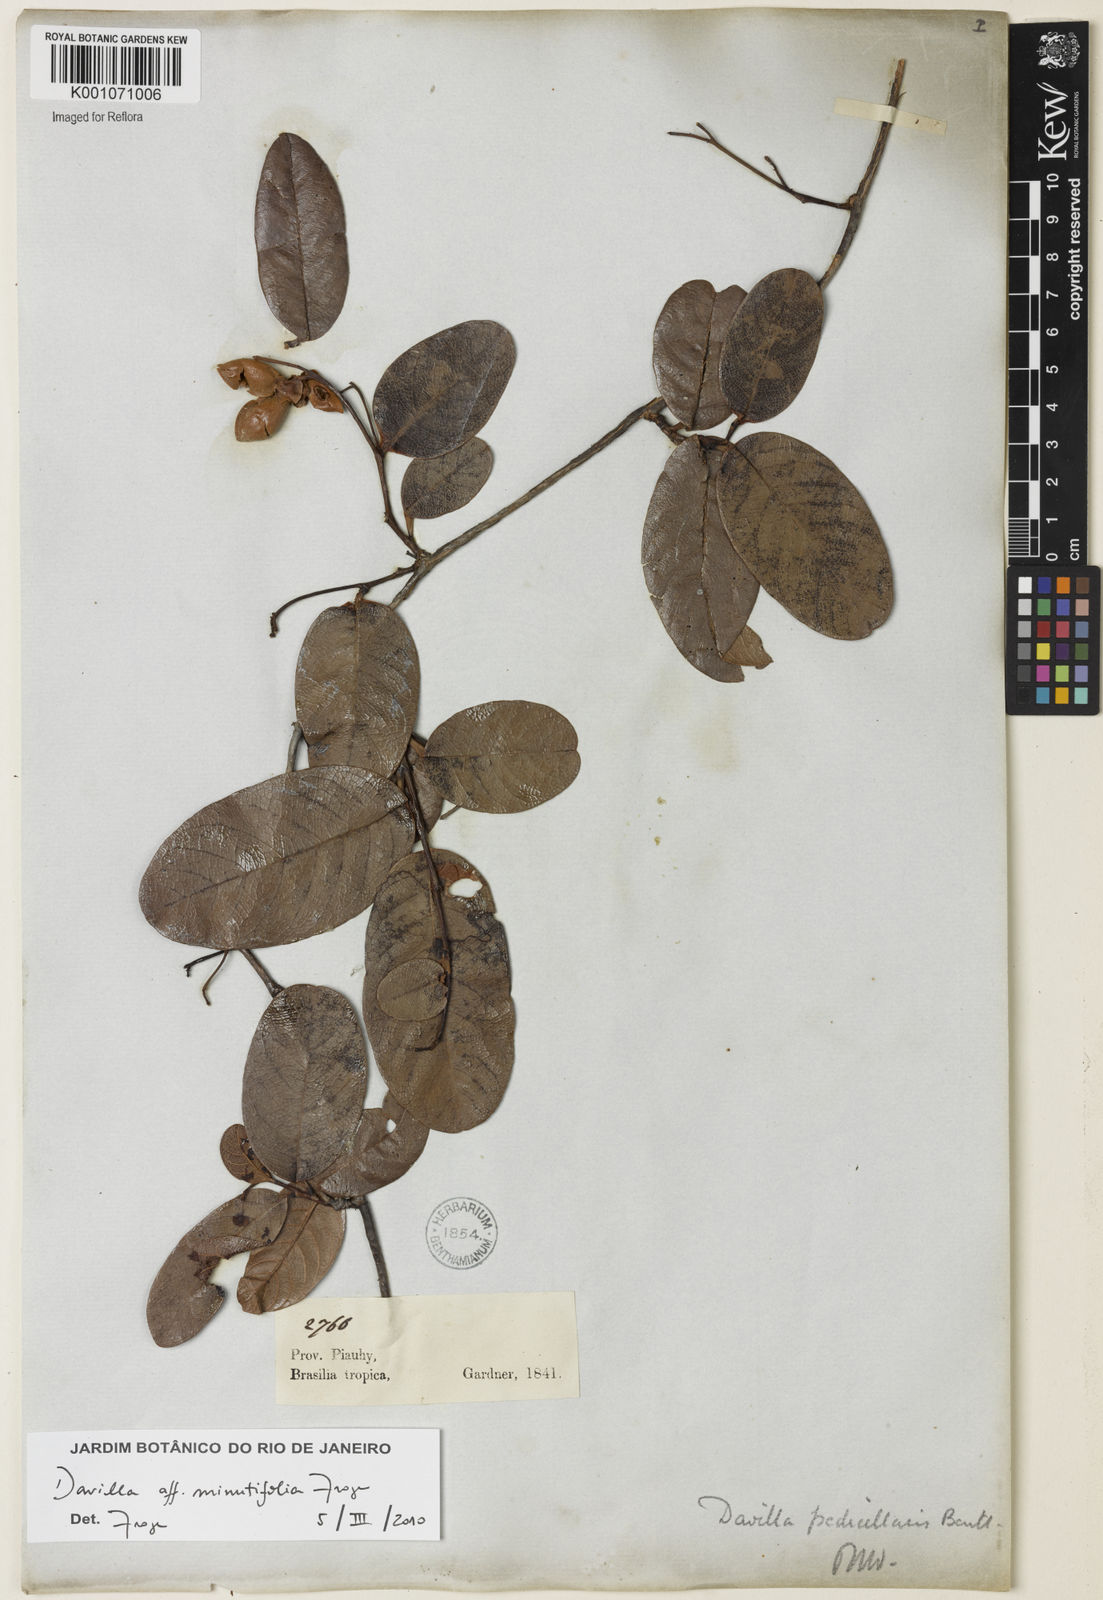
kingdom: Plantae
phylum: Tracheophyta
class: Magnoliopsida
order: Dilleniales
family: Dilleniaceae
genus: Davilla
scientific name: Davilla minutifolia
